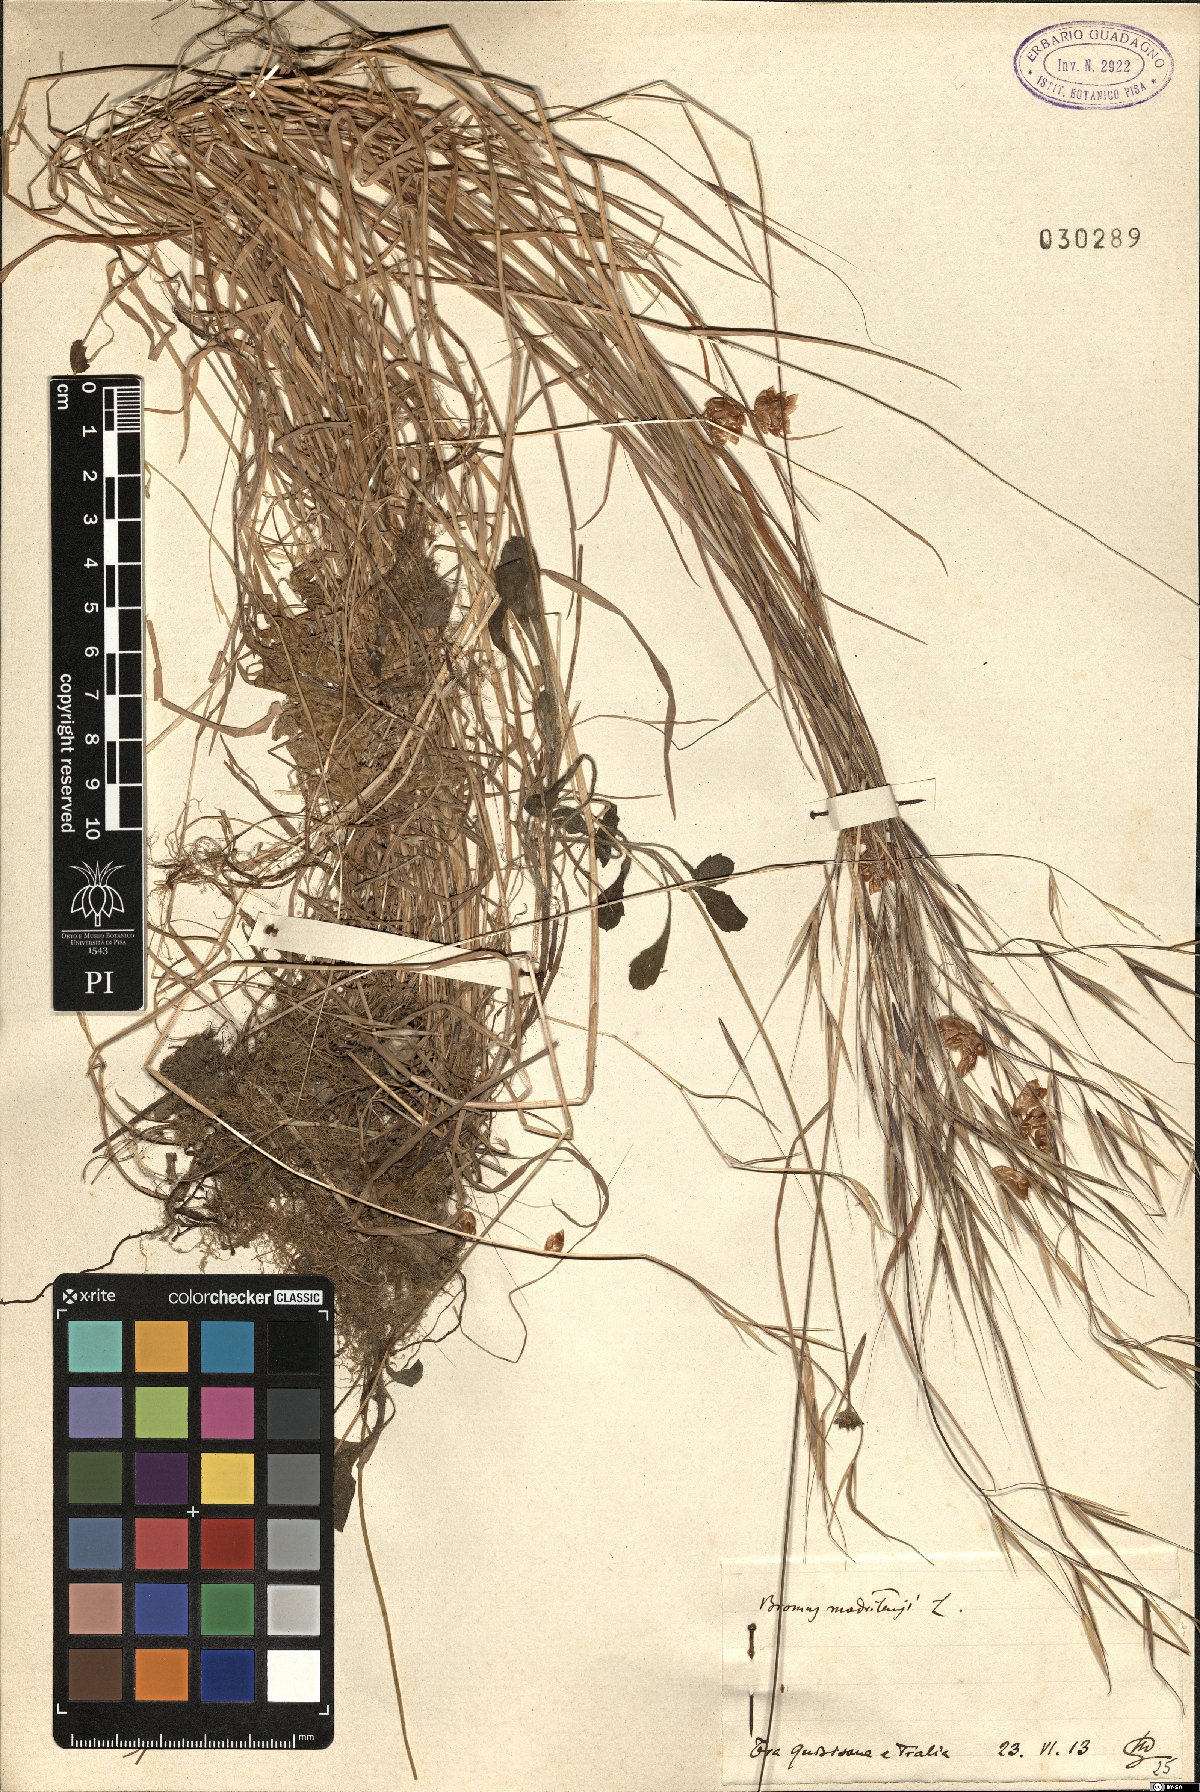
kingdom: Plantae
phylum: Tracheophyta
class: Liliopsida
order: Poales
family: Poaceae
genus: Bromus
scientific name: Bromus madritensis
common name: Compact brome
